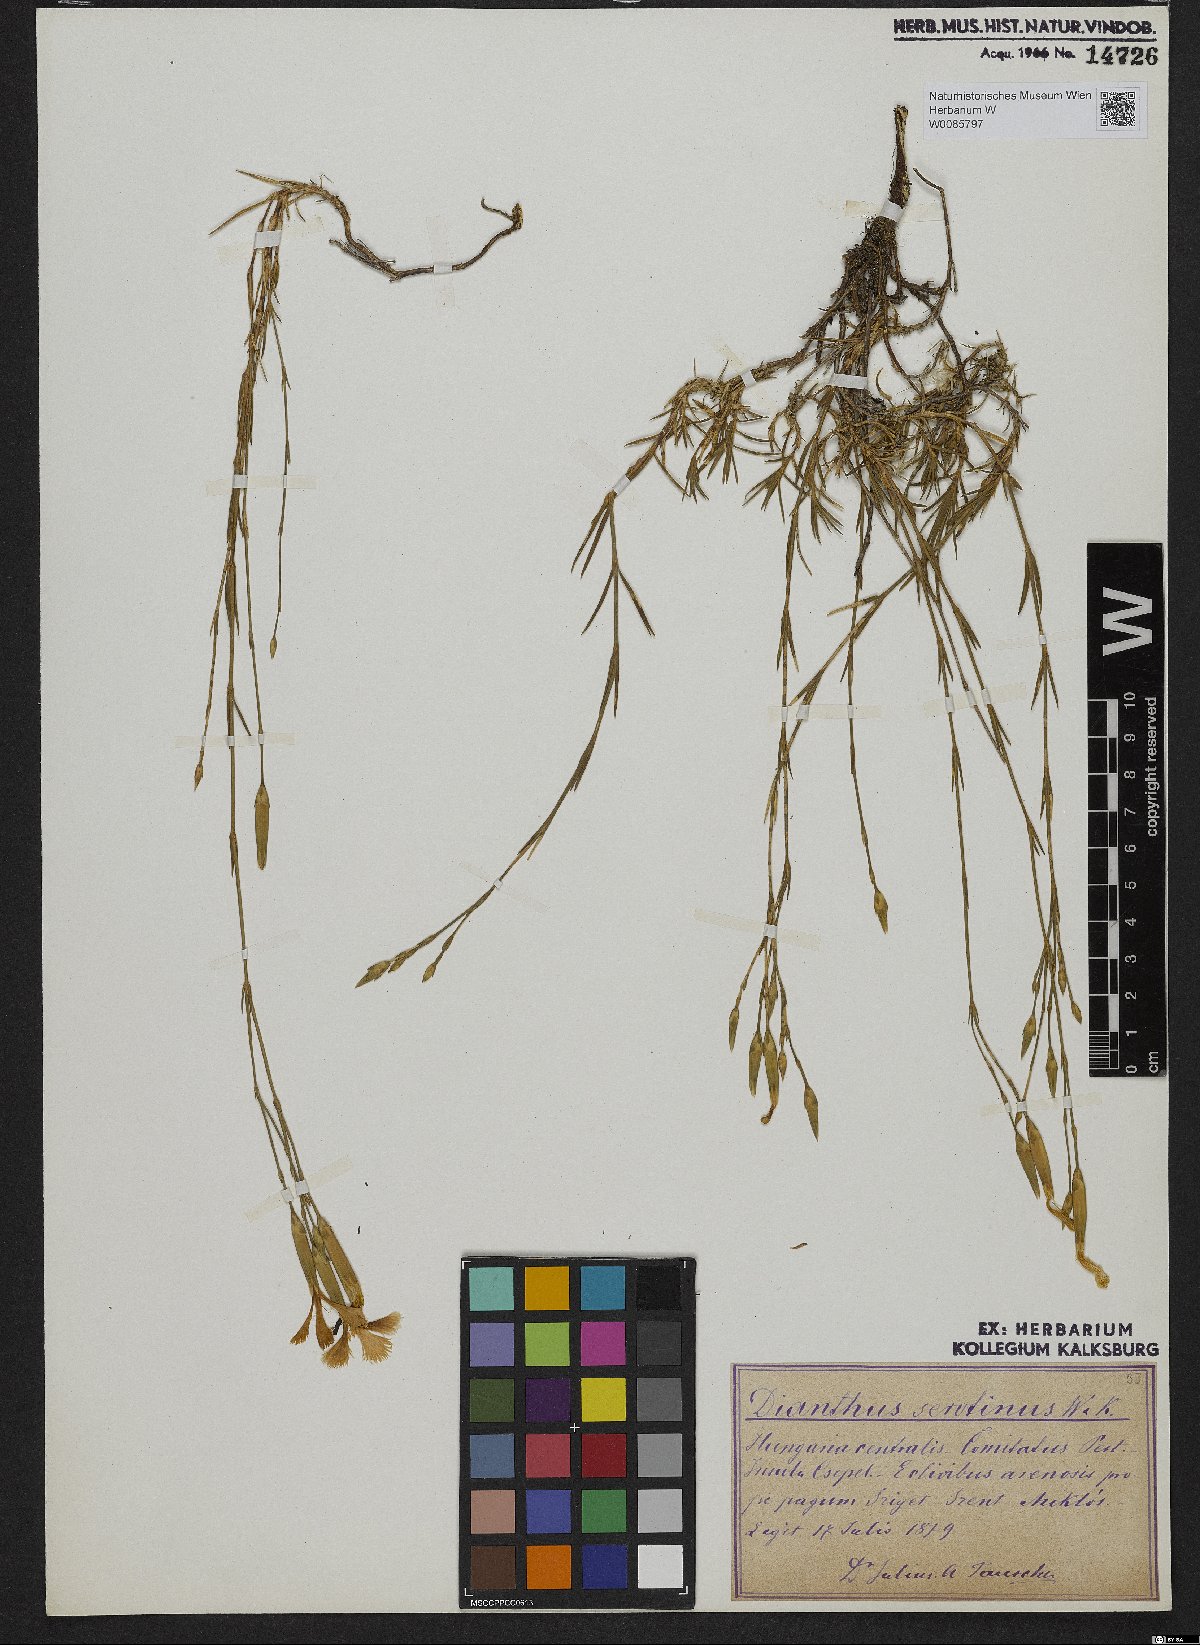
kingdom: Plantae
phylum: Tracheophyta
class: Magnoliopsida
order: Caryophyllales
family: Caryophyllaceae
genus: Dianthus
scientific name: Dianthus serotinus
